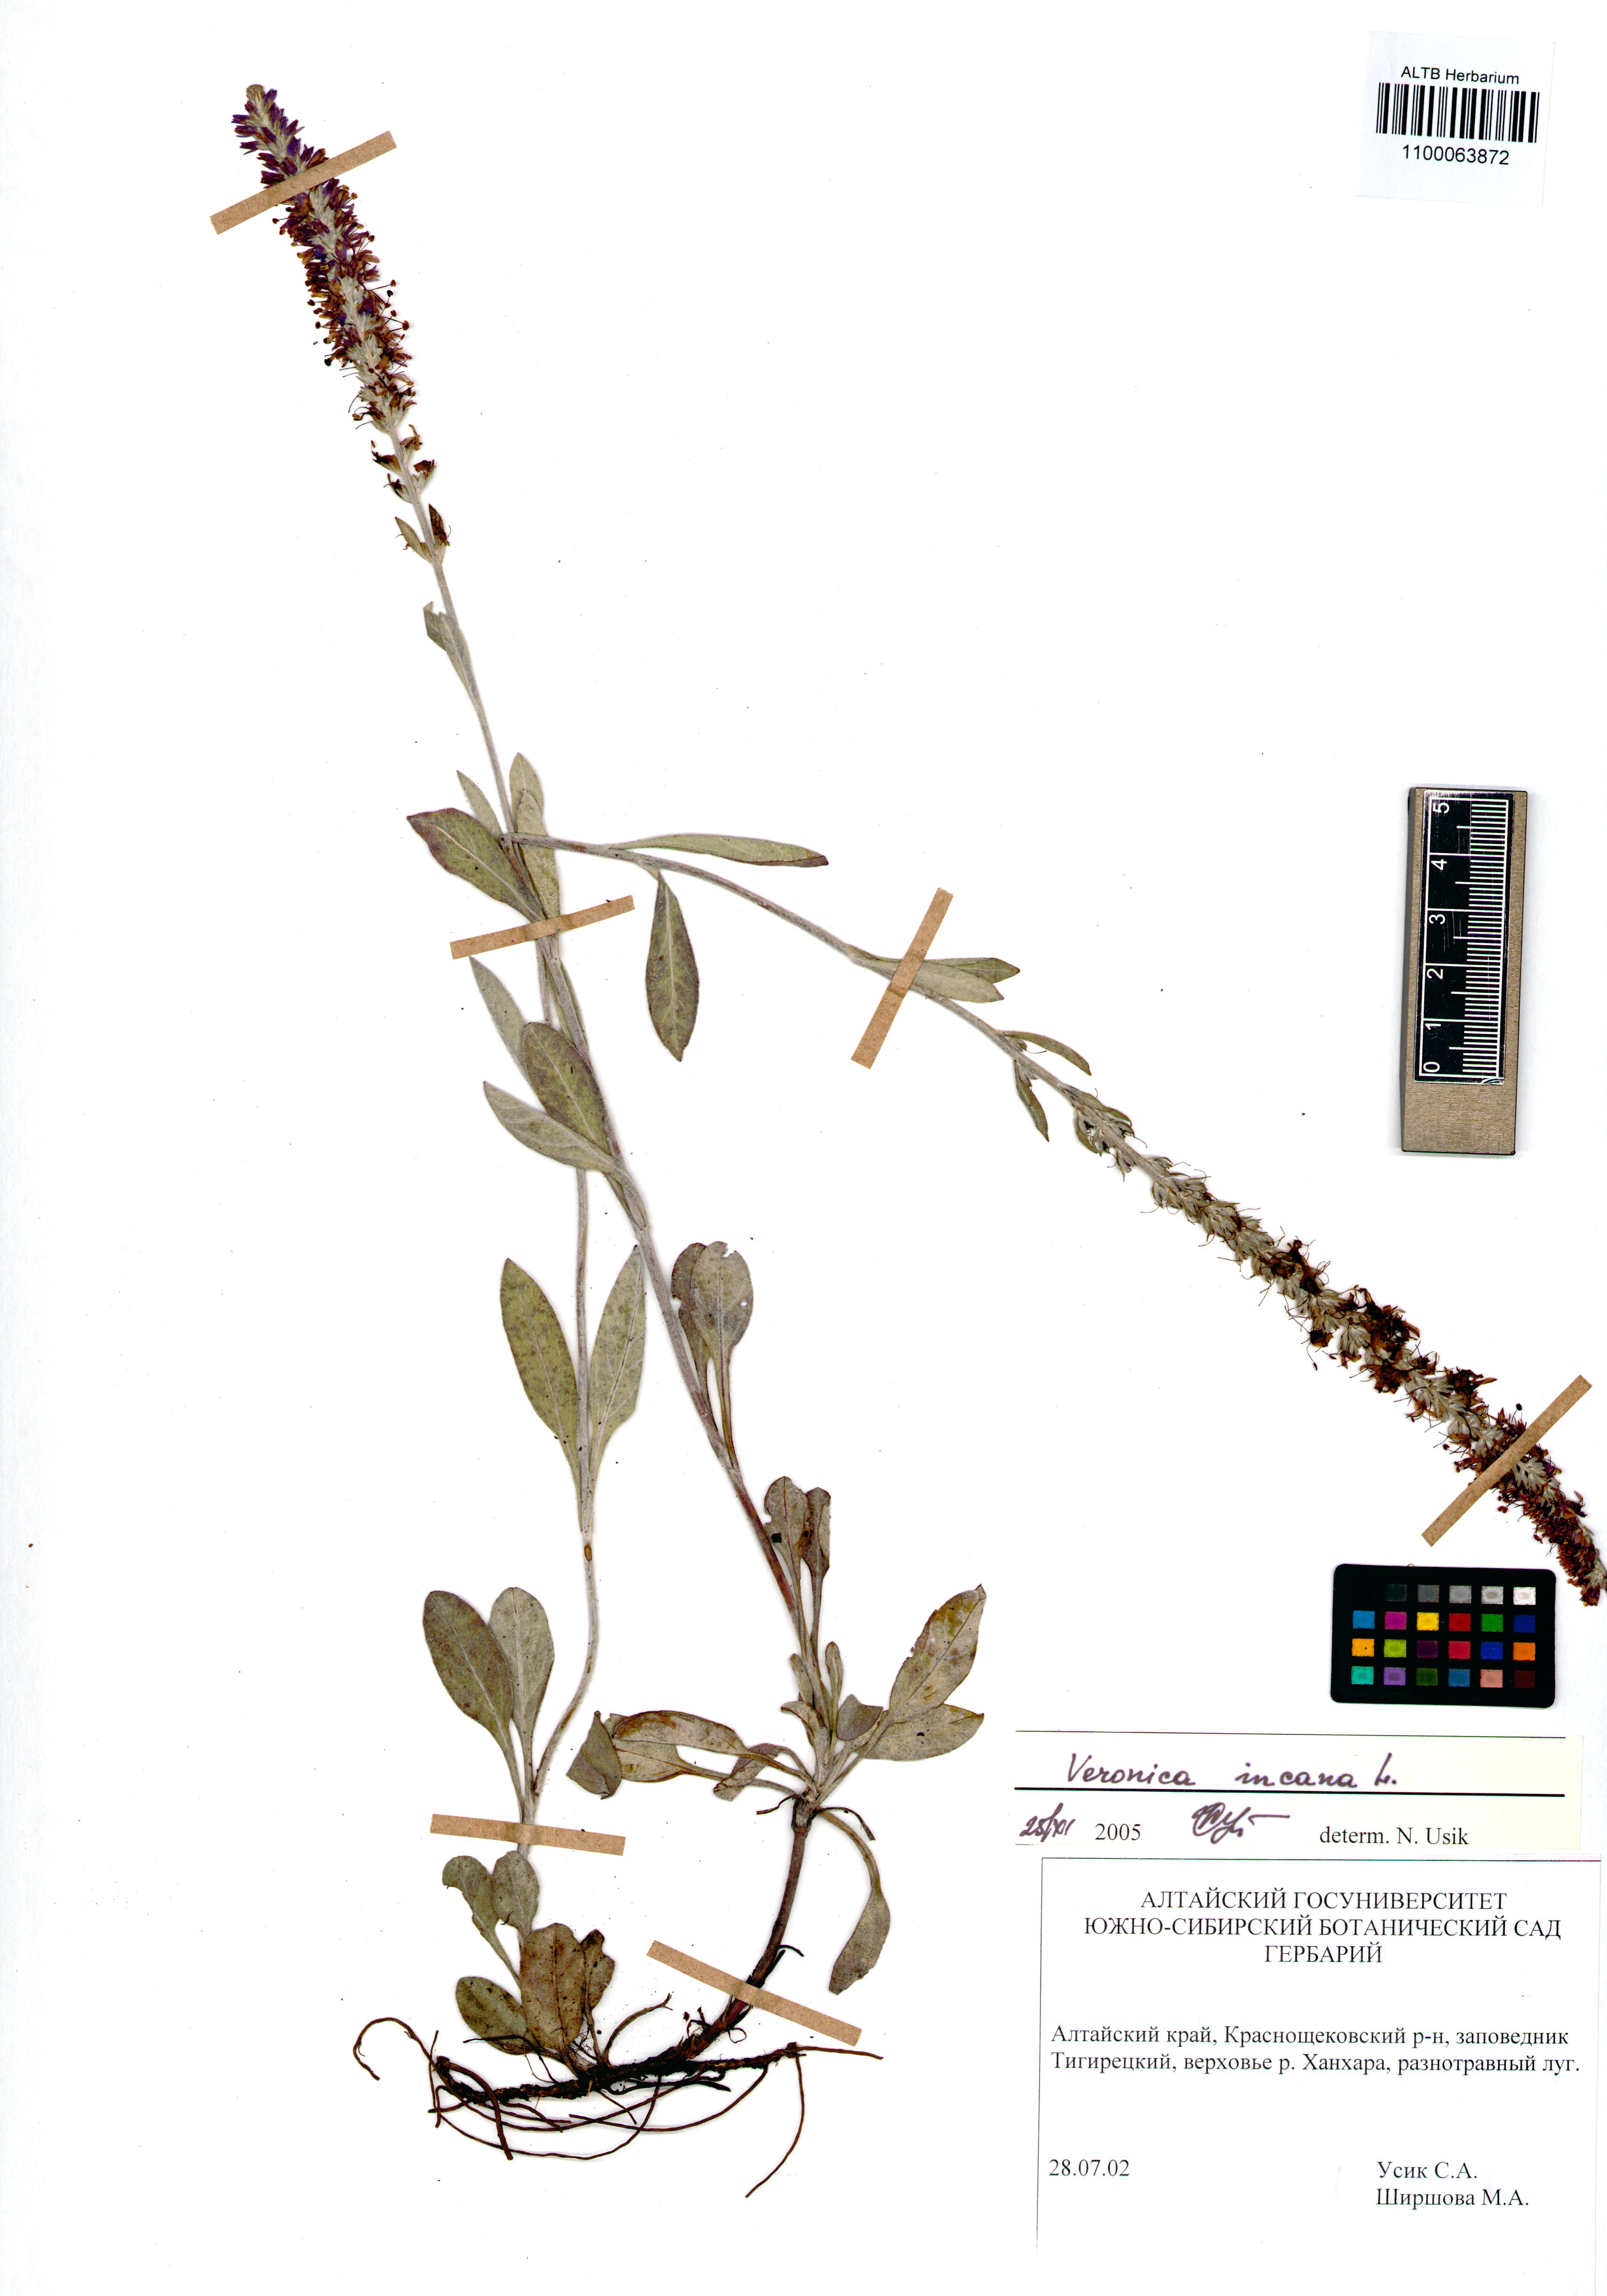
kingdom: Plantae
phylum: Tracheophyta
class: Magnoliopsida
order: Lamiales
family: Plantaginaceae
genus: Veronica
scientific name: Veronica incana
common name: Silver speedwell
